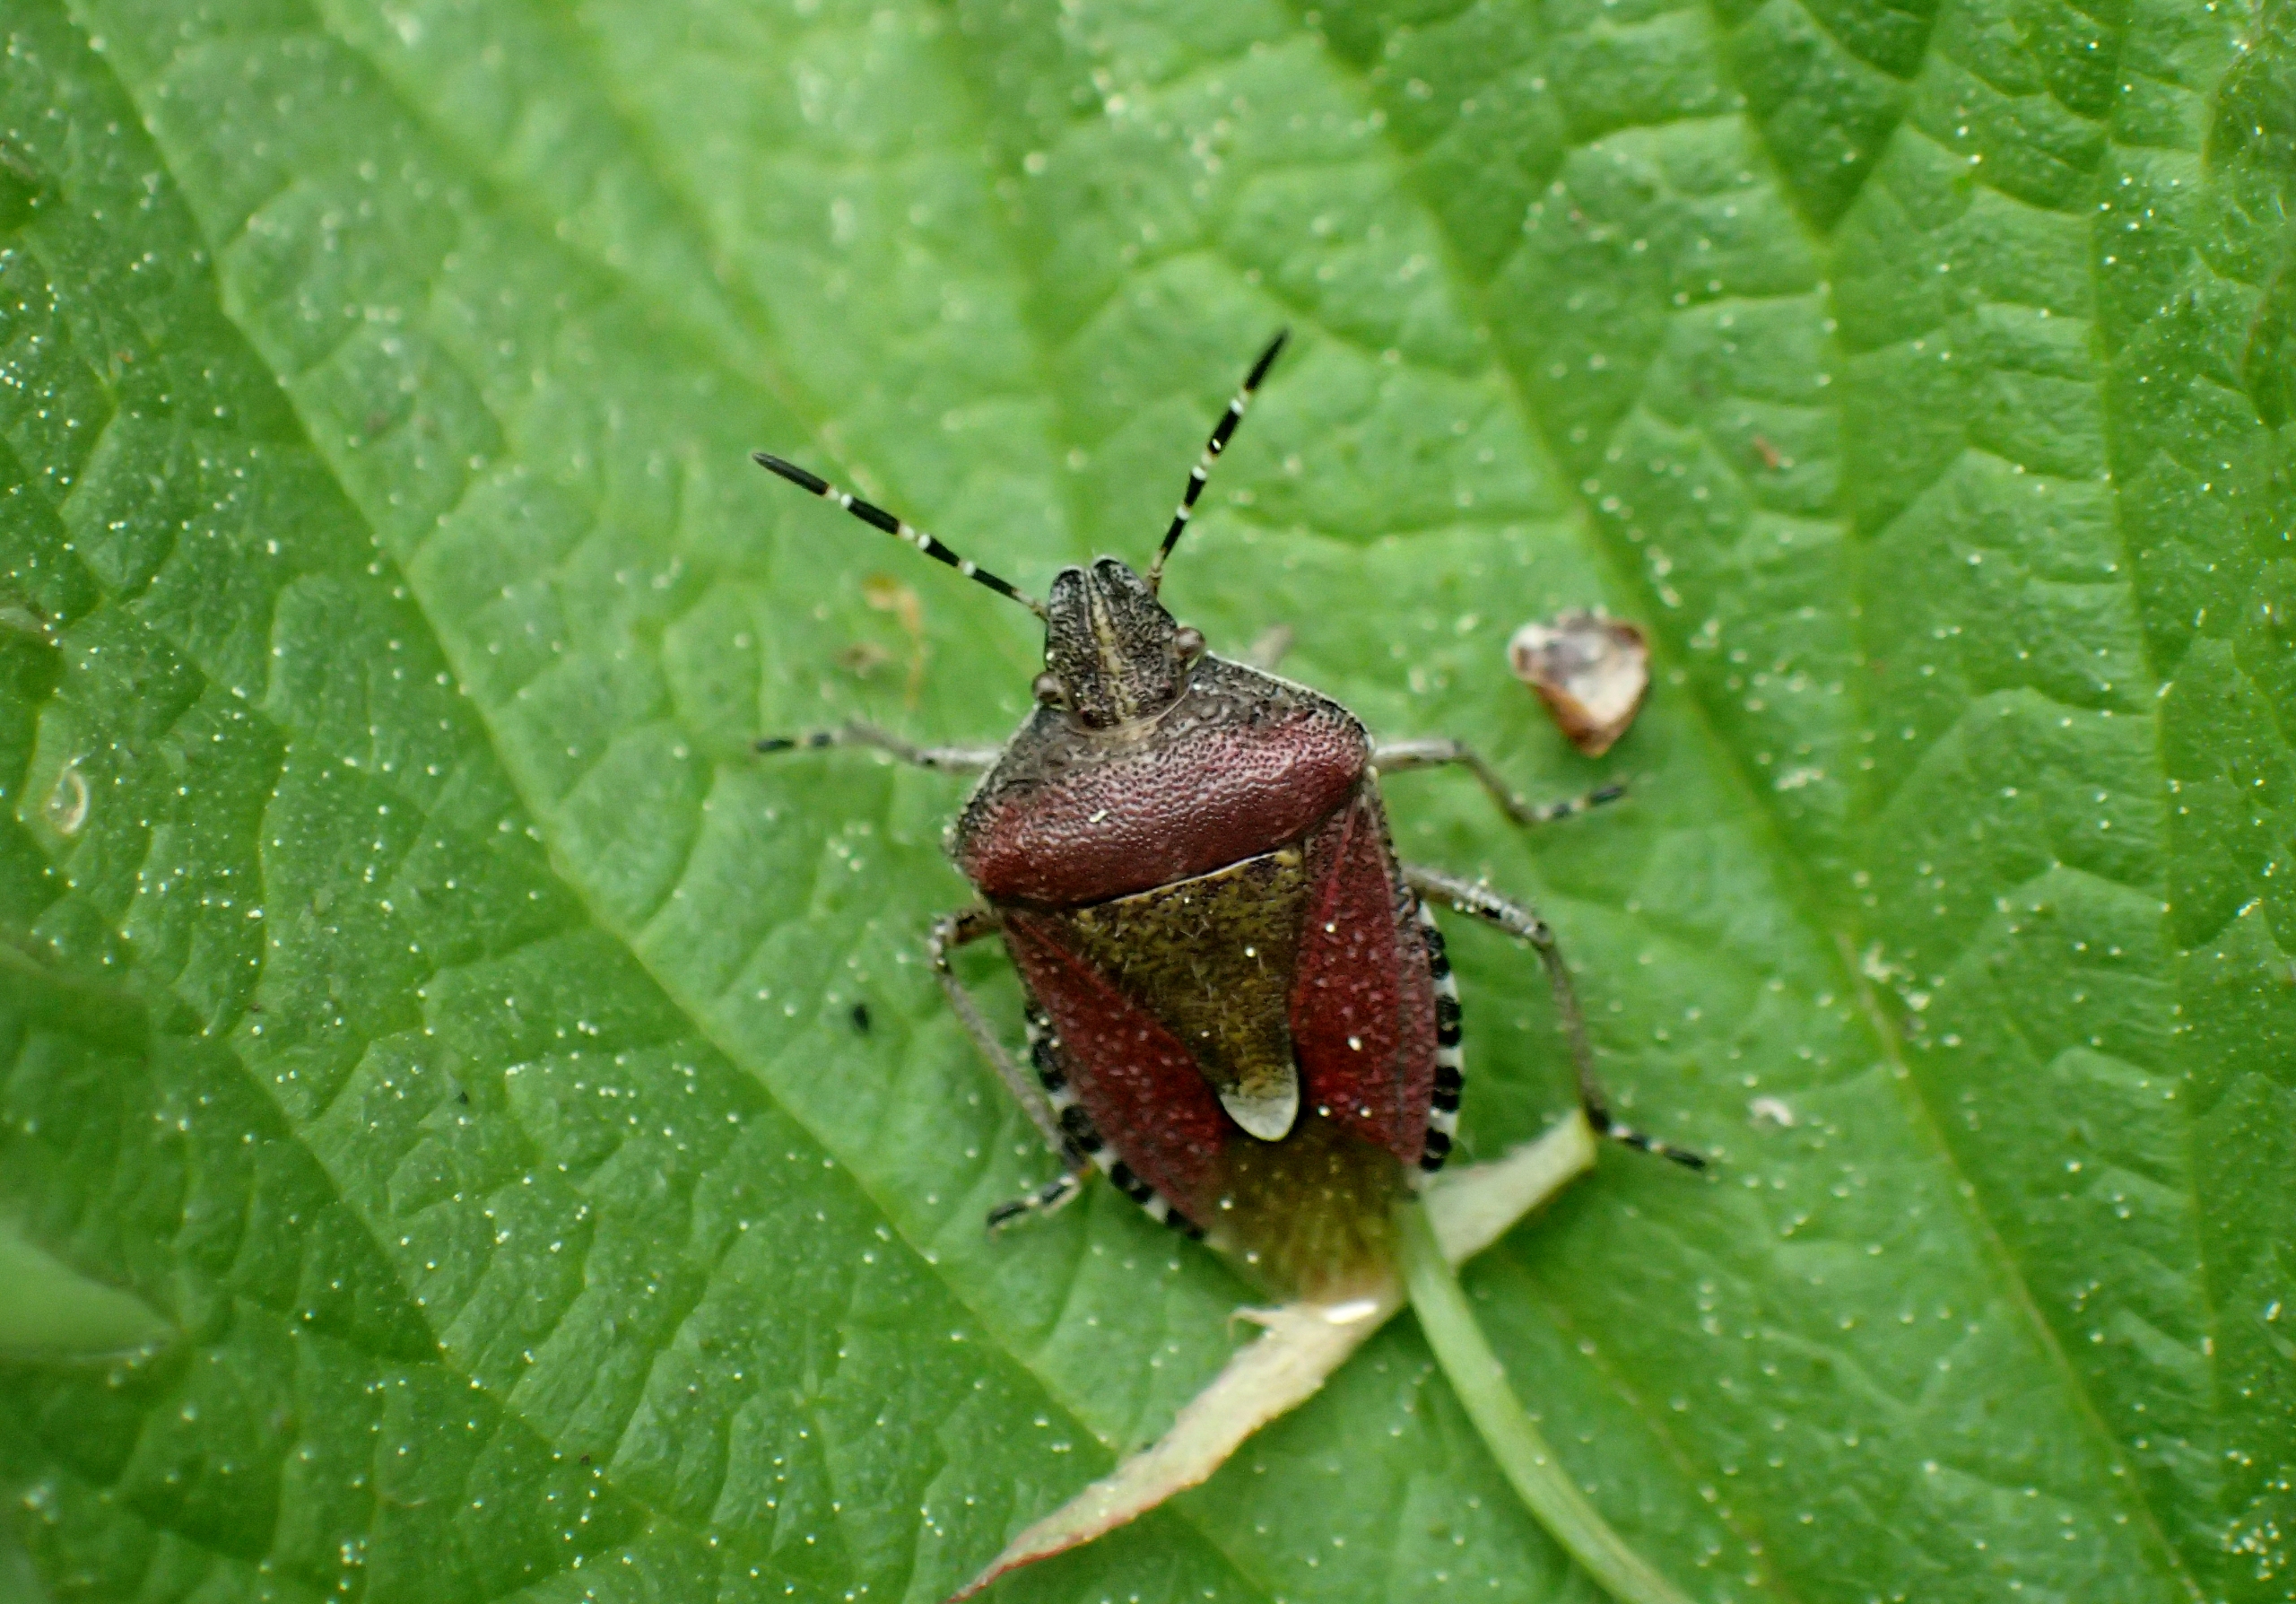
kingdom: Animalia
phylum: Arthropoda
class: Insecta
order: Hemiptera
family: Pentatomidae
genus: Dolycoris
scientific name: Dolycoris baccarum
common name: Almindelig bærtæge
